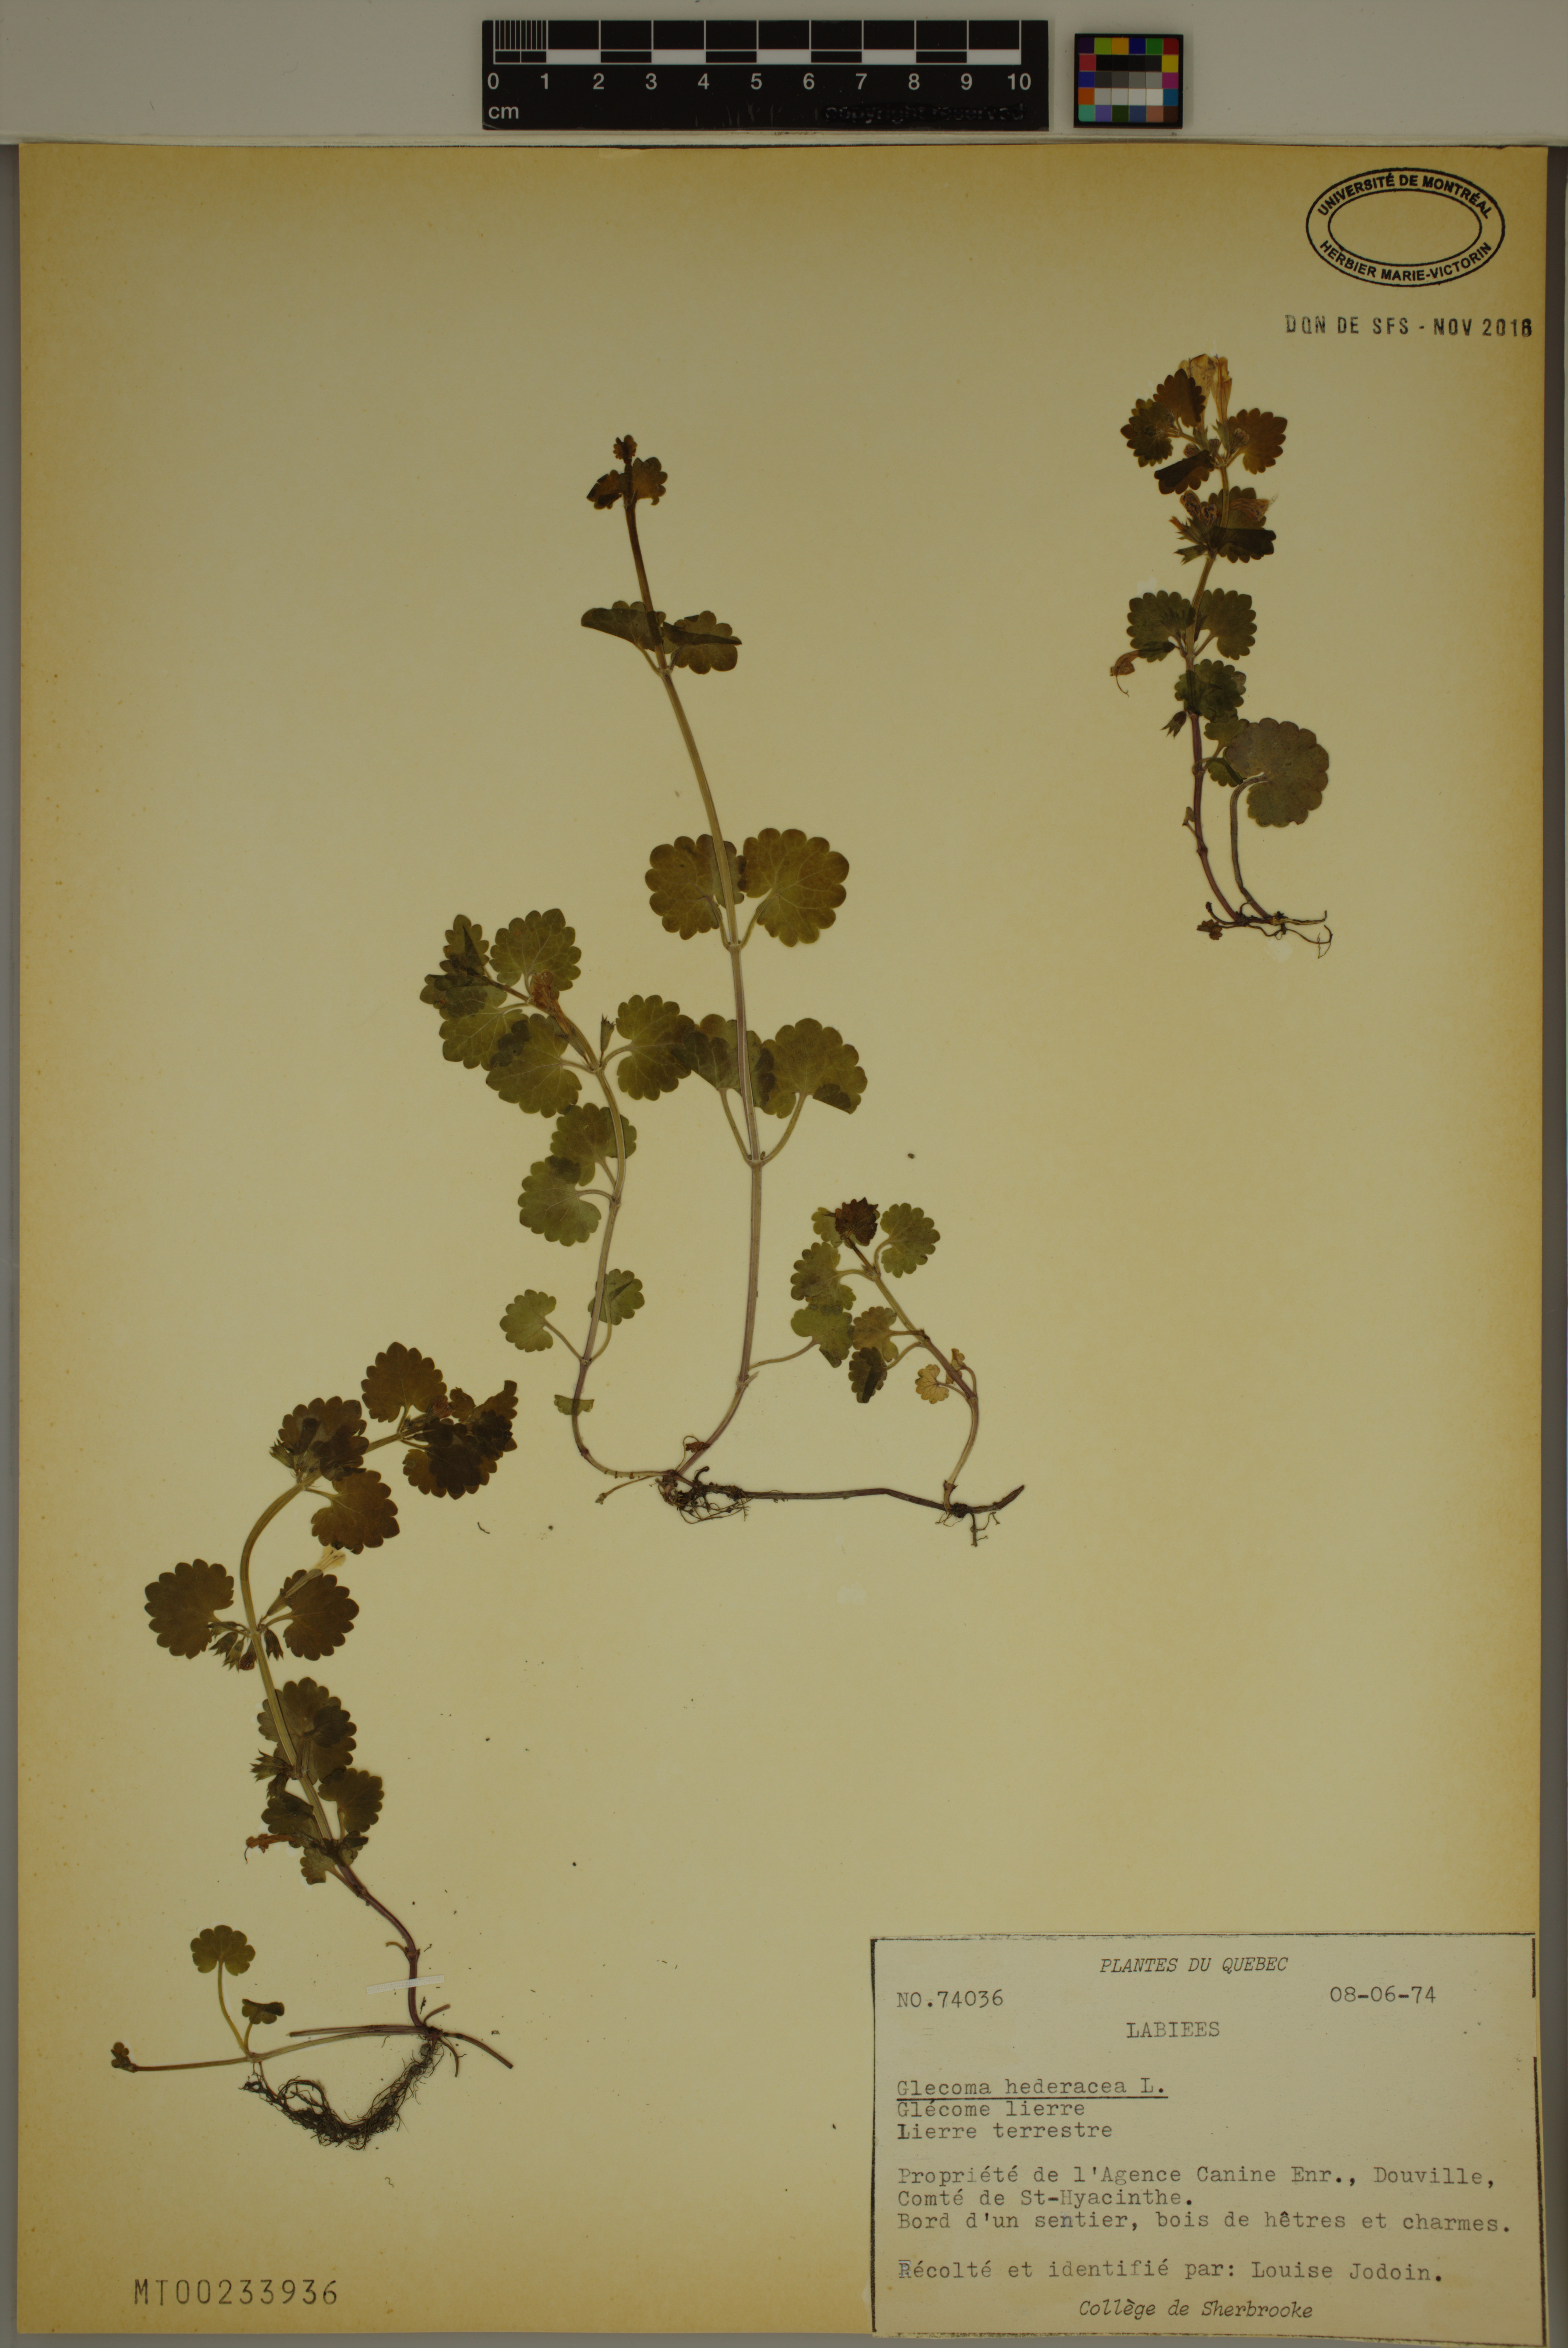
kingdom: Plantae
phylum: Tracheophyta
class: Magnoliopsida
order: Lamiales
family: Lamiaceae
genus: Glechoma
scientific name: Glechoma hederacea
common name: Ground ivy
